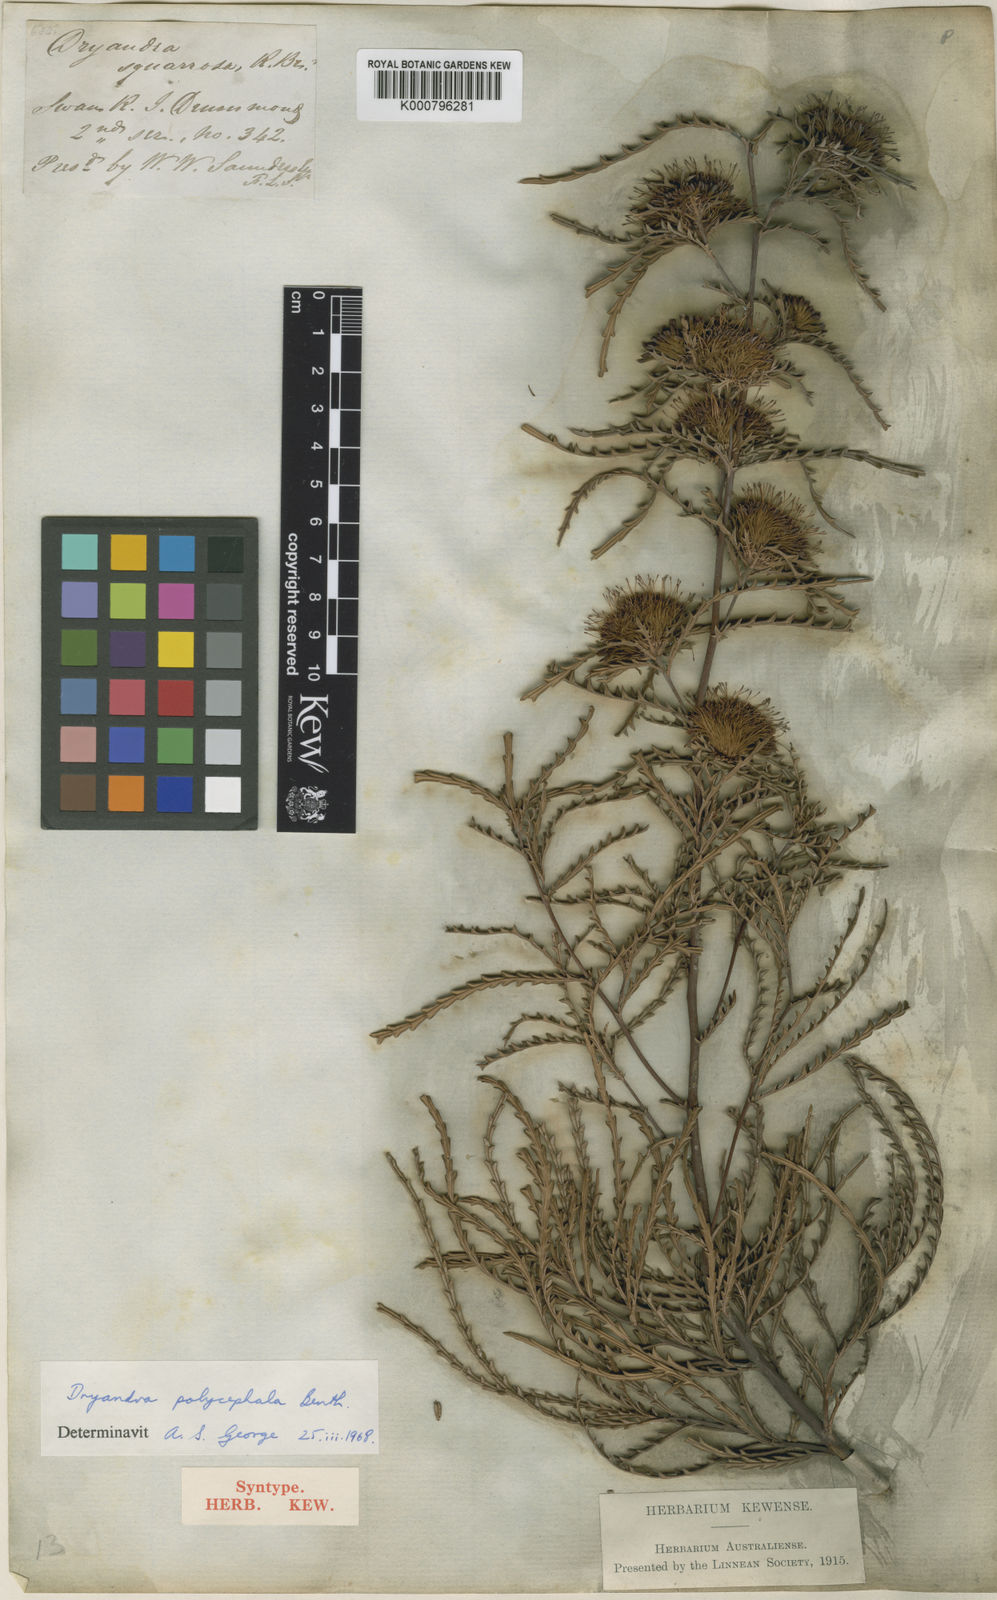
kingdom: Plantae
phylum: Tracheophyta
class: Magnoliopsida
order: Proteales
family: Proteaceae
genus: Banksia
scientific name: Banksia polycephala
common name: Many-head dryandra
